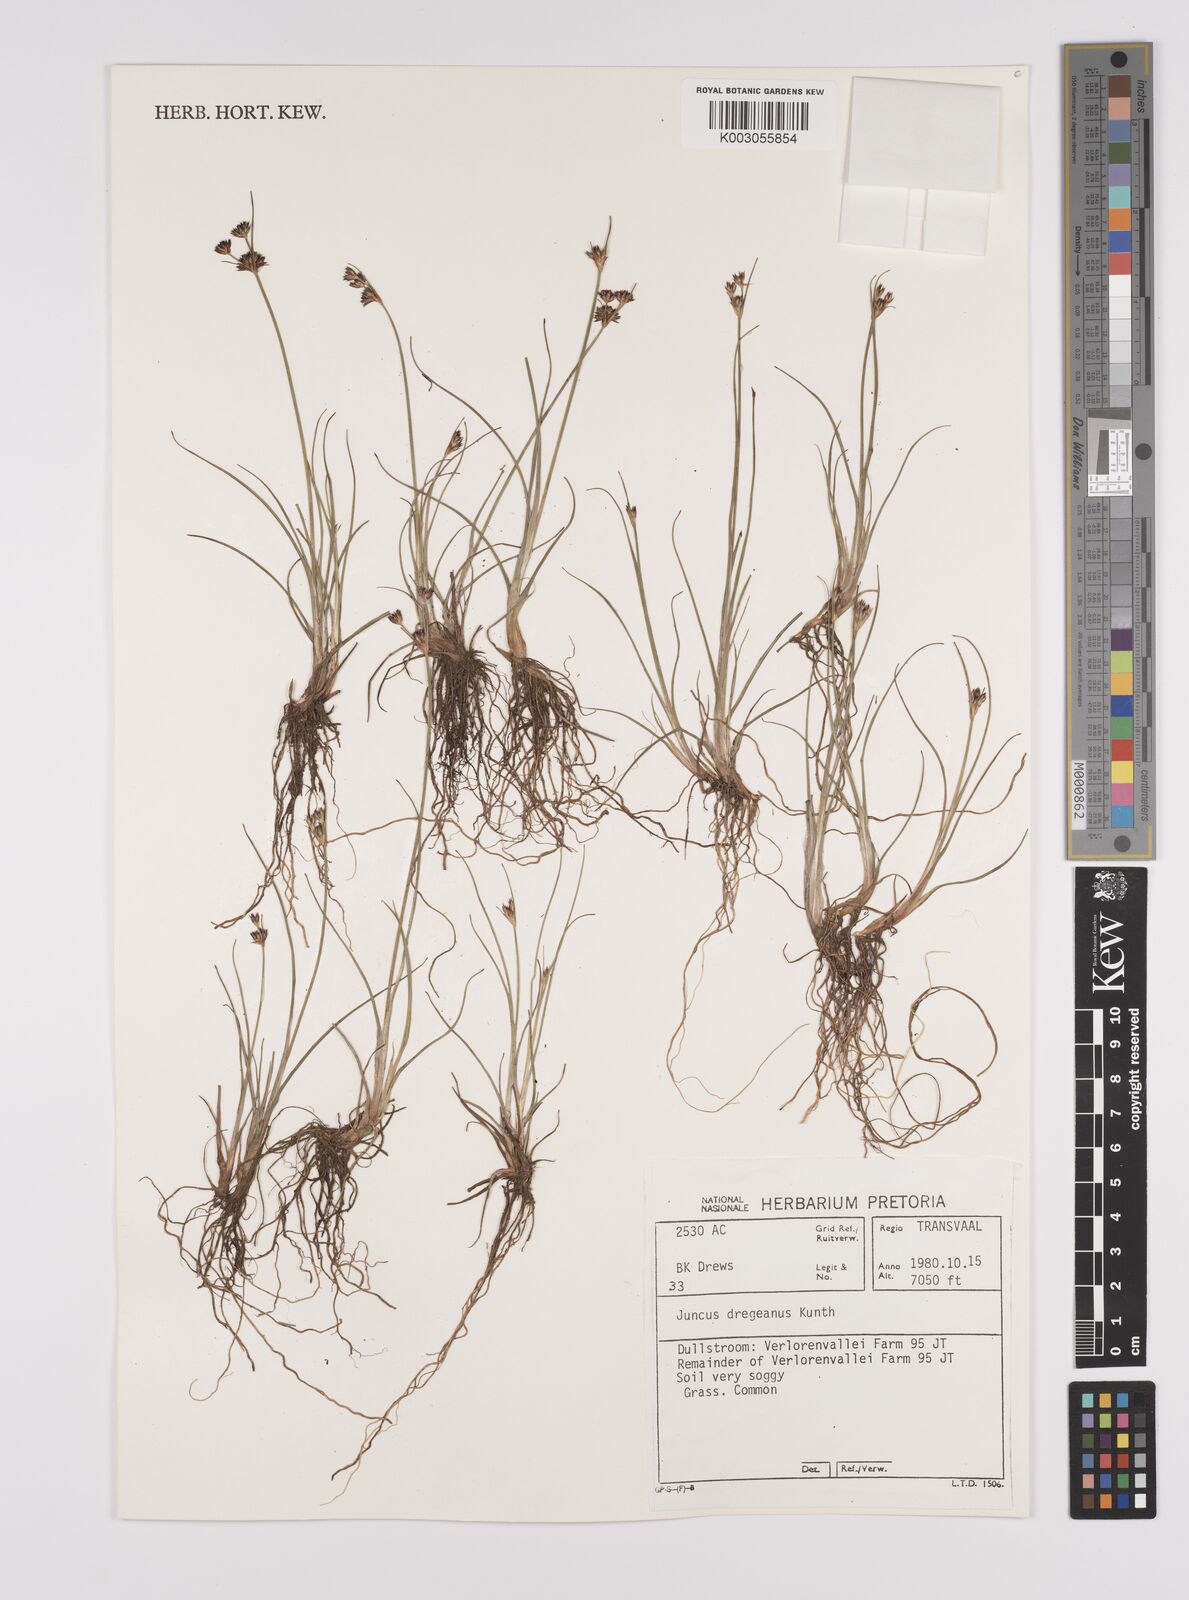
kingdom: Plantae
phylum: Tracheophyta
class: Liliopsida
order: Poales
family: Juncaceae
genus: Juncus
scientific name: Juncus dregeanus
